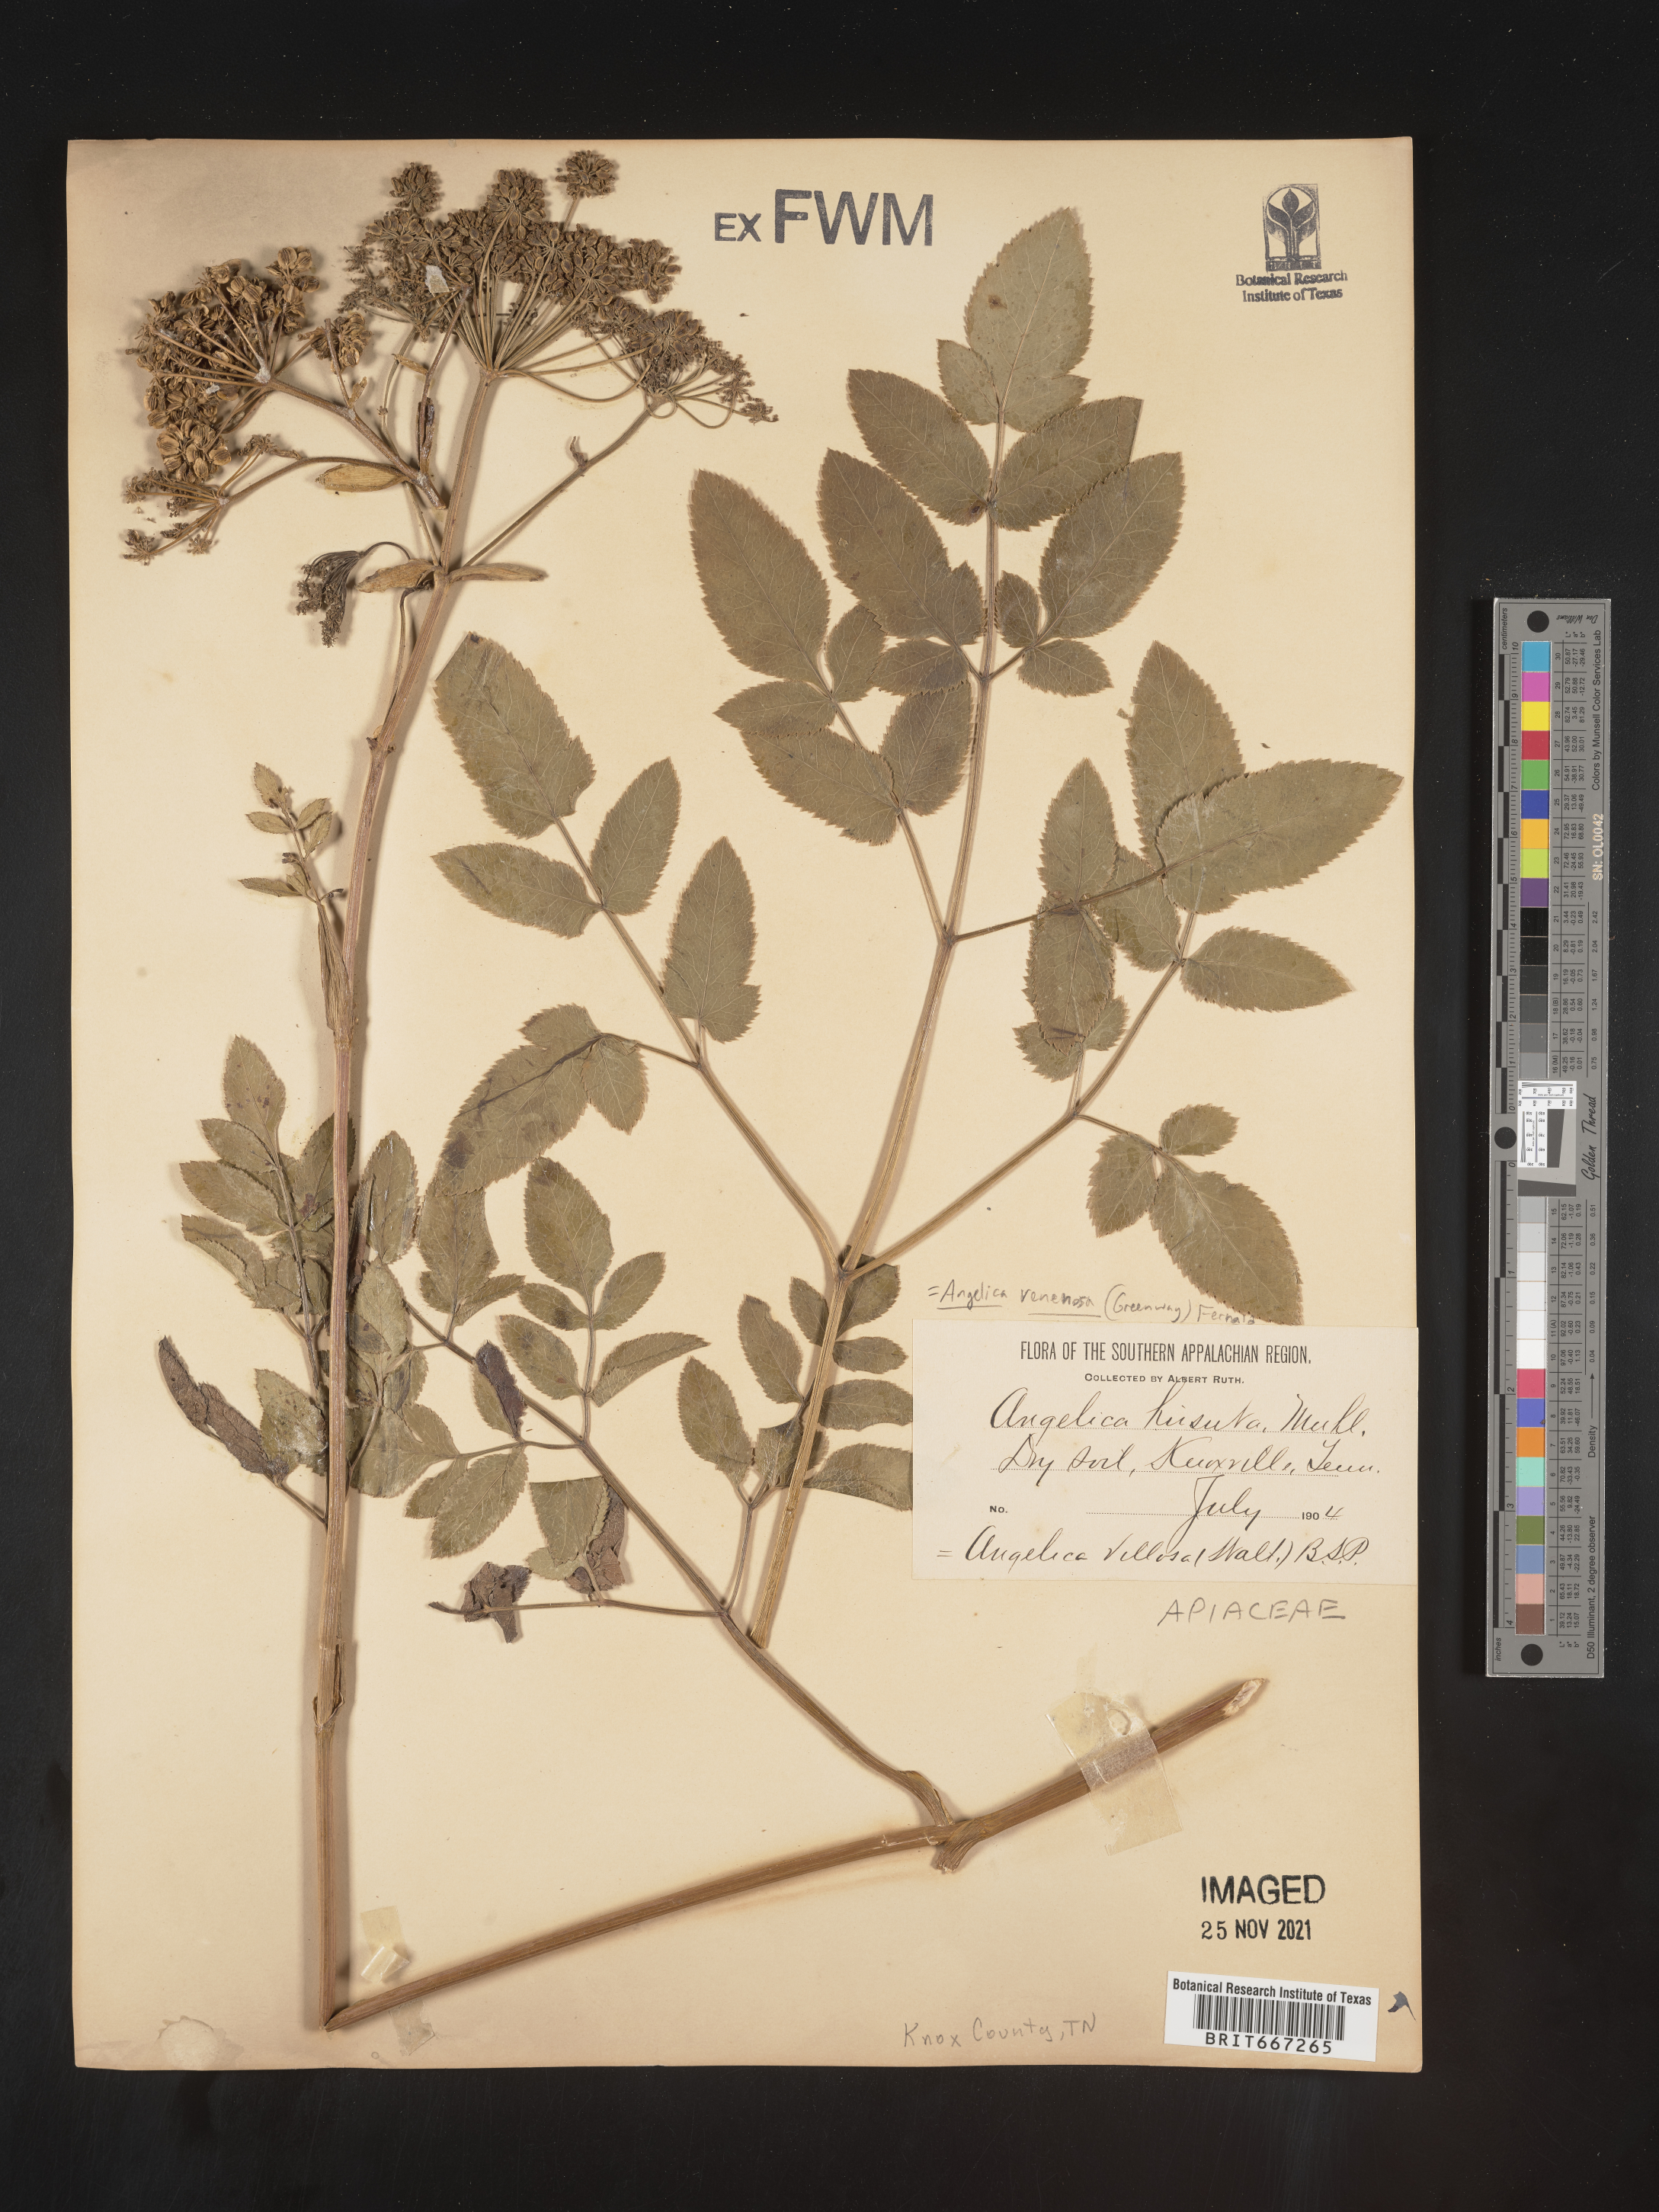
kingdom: Plantae
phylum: Tracheophyta
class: Magnoliopsida
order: Apiales
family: Apiaceae
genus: Angelica
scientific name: Angelica venenosa
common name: Hairy angelica
